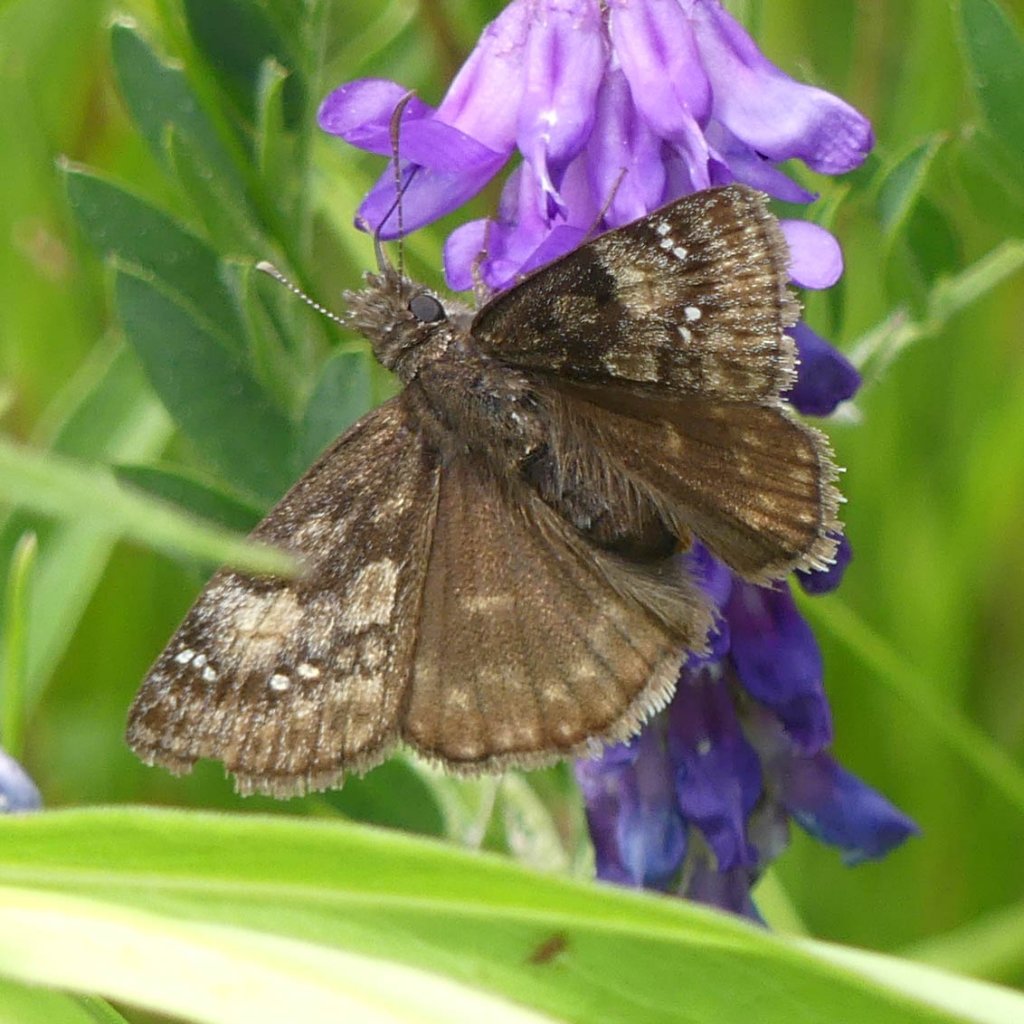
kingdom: Animalia
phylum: Arthropoda
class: Insecta
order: Lepidoptera
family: Hesperiidae
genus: Gesta
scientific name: Gesta
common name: Wild Indigo Duskywing
